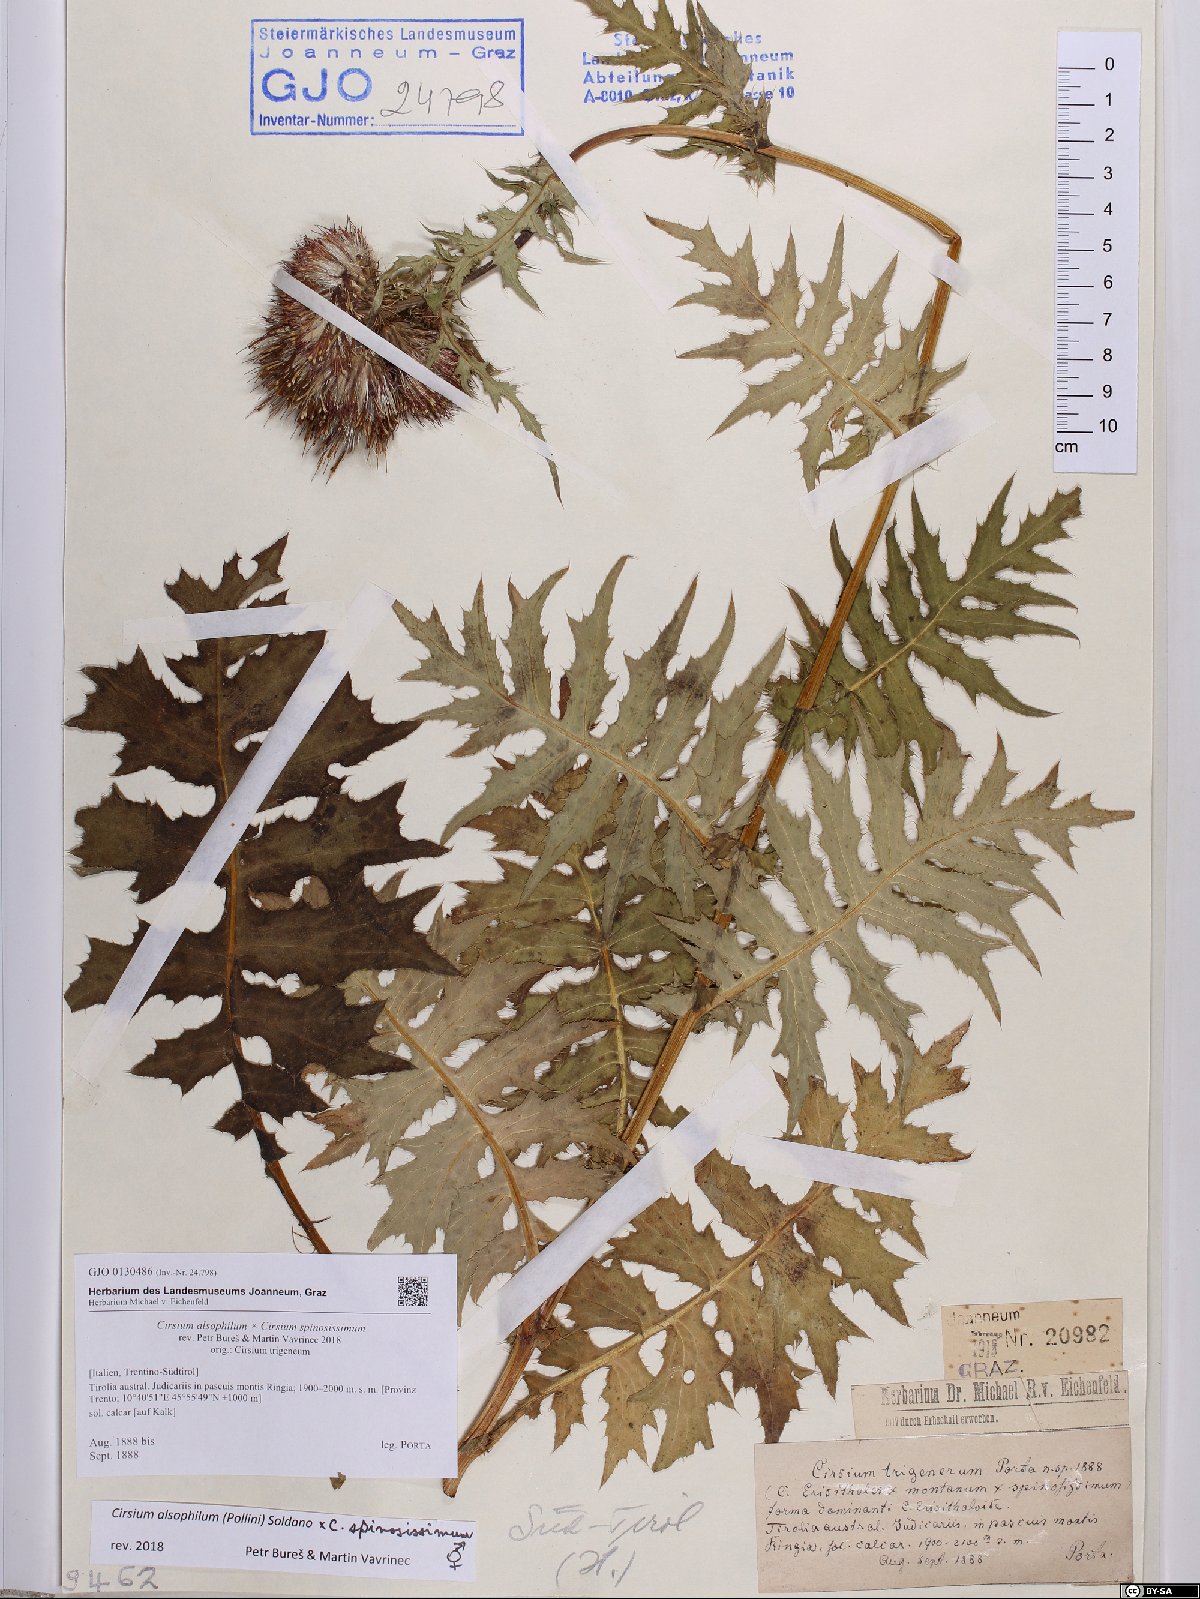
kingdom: Plantae
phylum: Tracheophyta
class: Magnoliopsida
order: Asterales
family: Asteraceae
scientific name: Asteraceae
